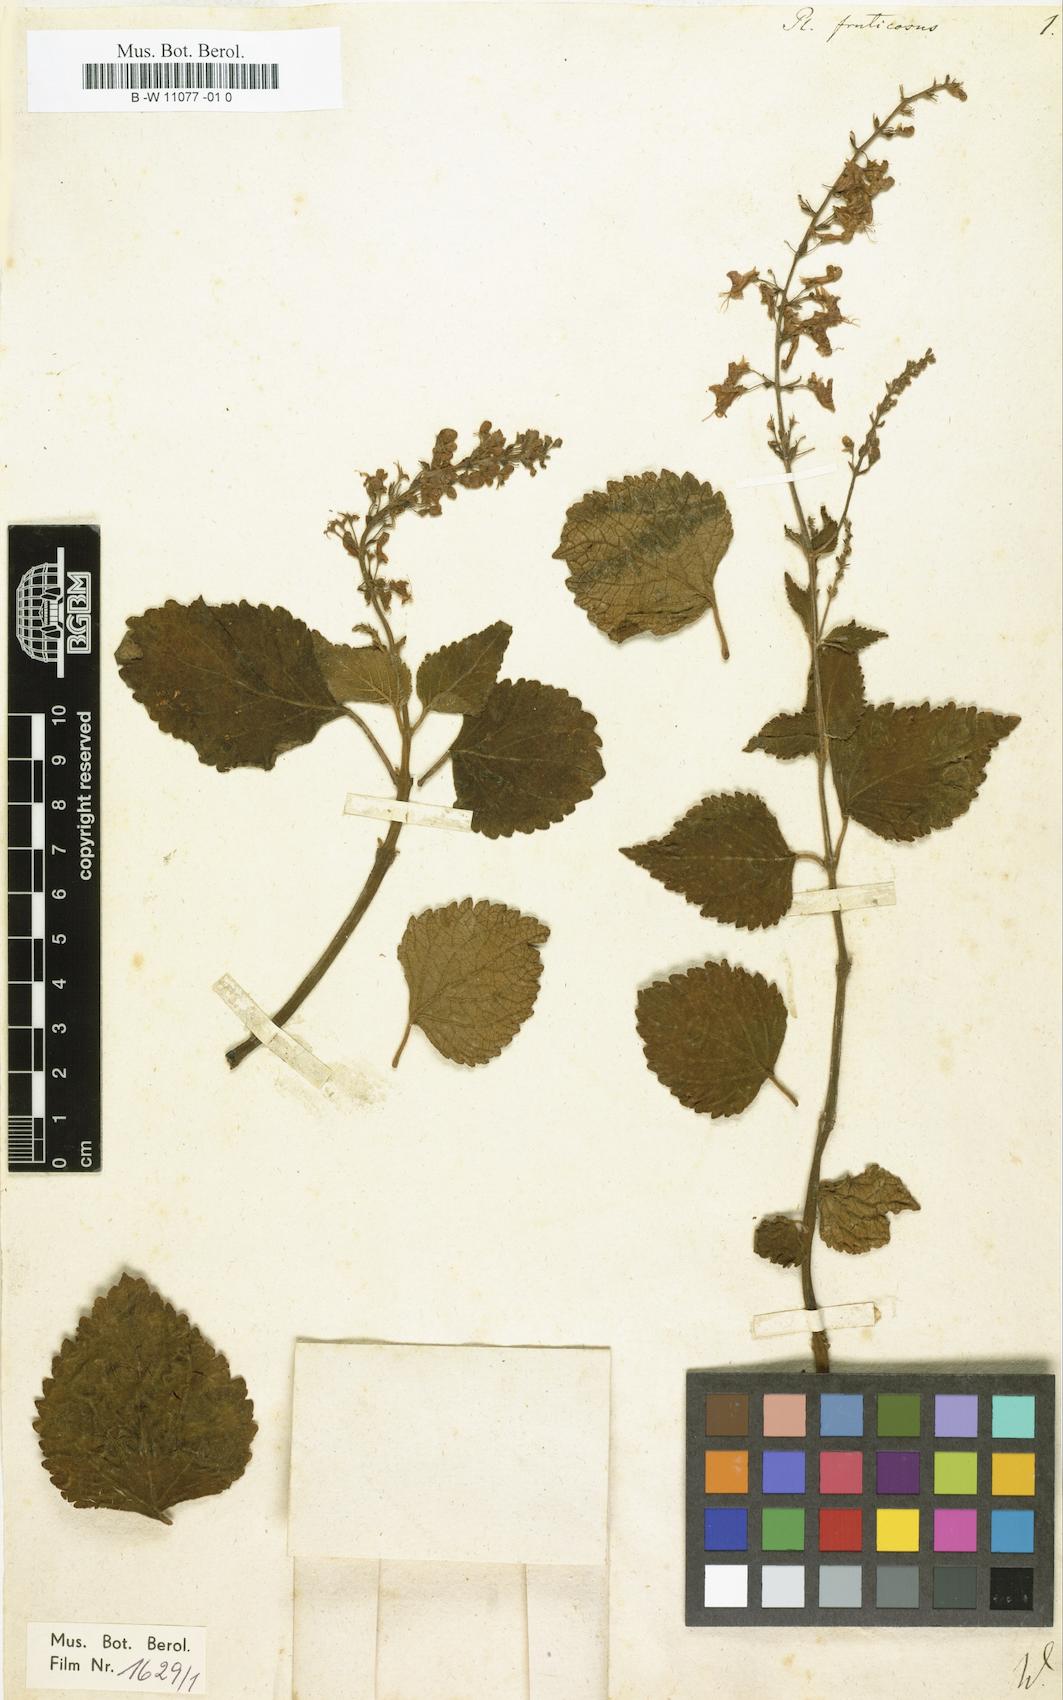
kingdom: Plantae
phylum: Tracheophyta
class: Magnoliopsida
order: Lamiales
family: Lamiaceae
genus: Plectranthus
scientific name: Plectranthus fruticosus
